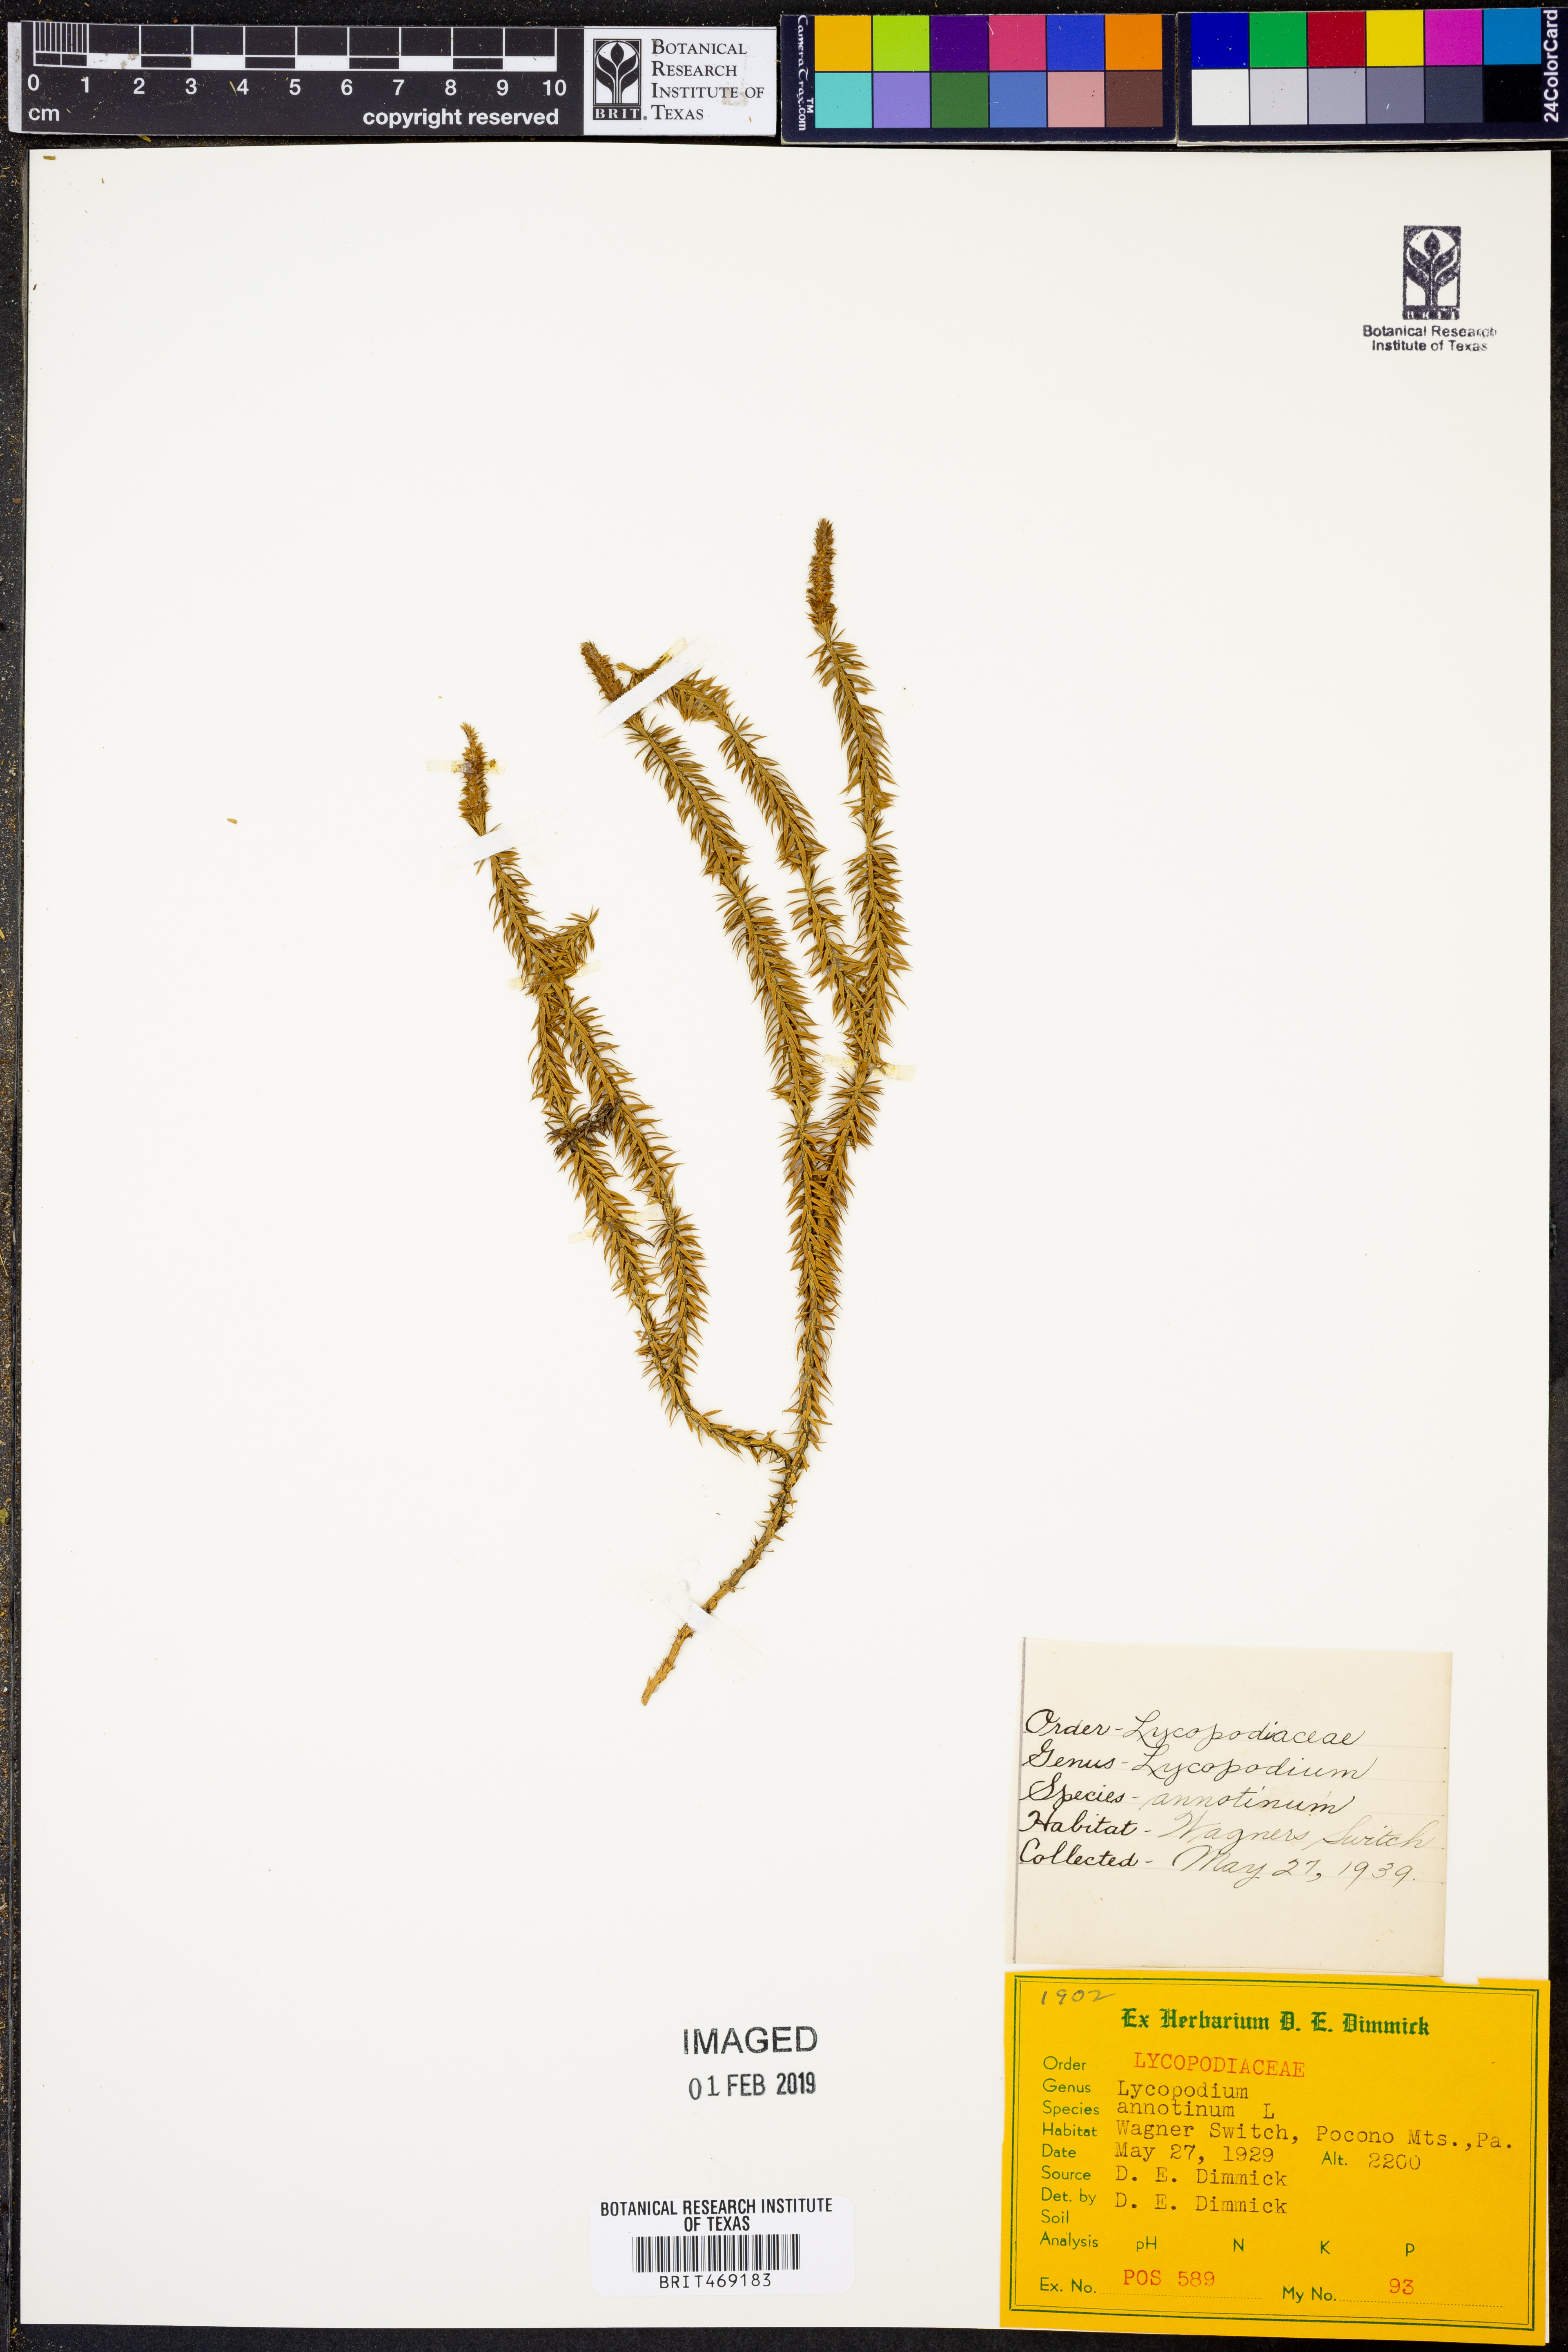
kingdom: Plantae
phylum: Tracheophyta
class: Lycopodiopsida
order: Lycopodiales
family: Lycopodiaceae
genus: Spinulum
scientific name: Spinulum annotinum
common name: Interrupted club-moss
